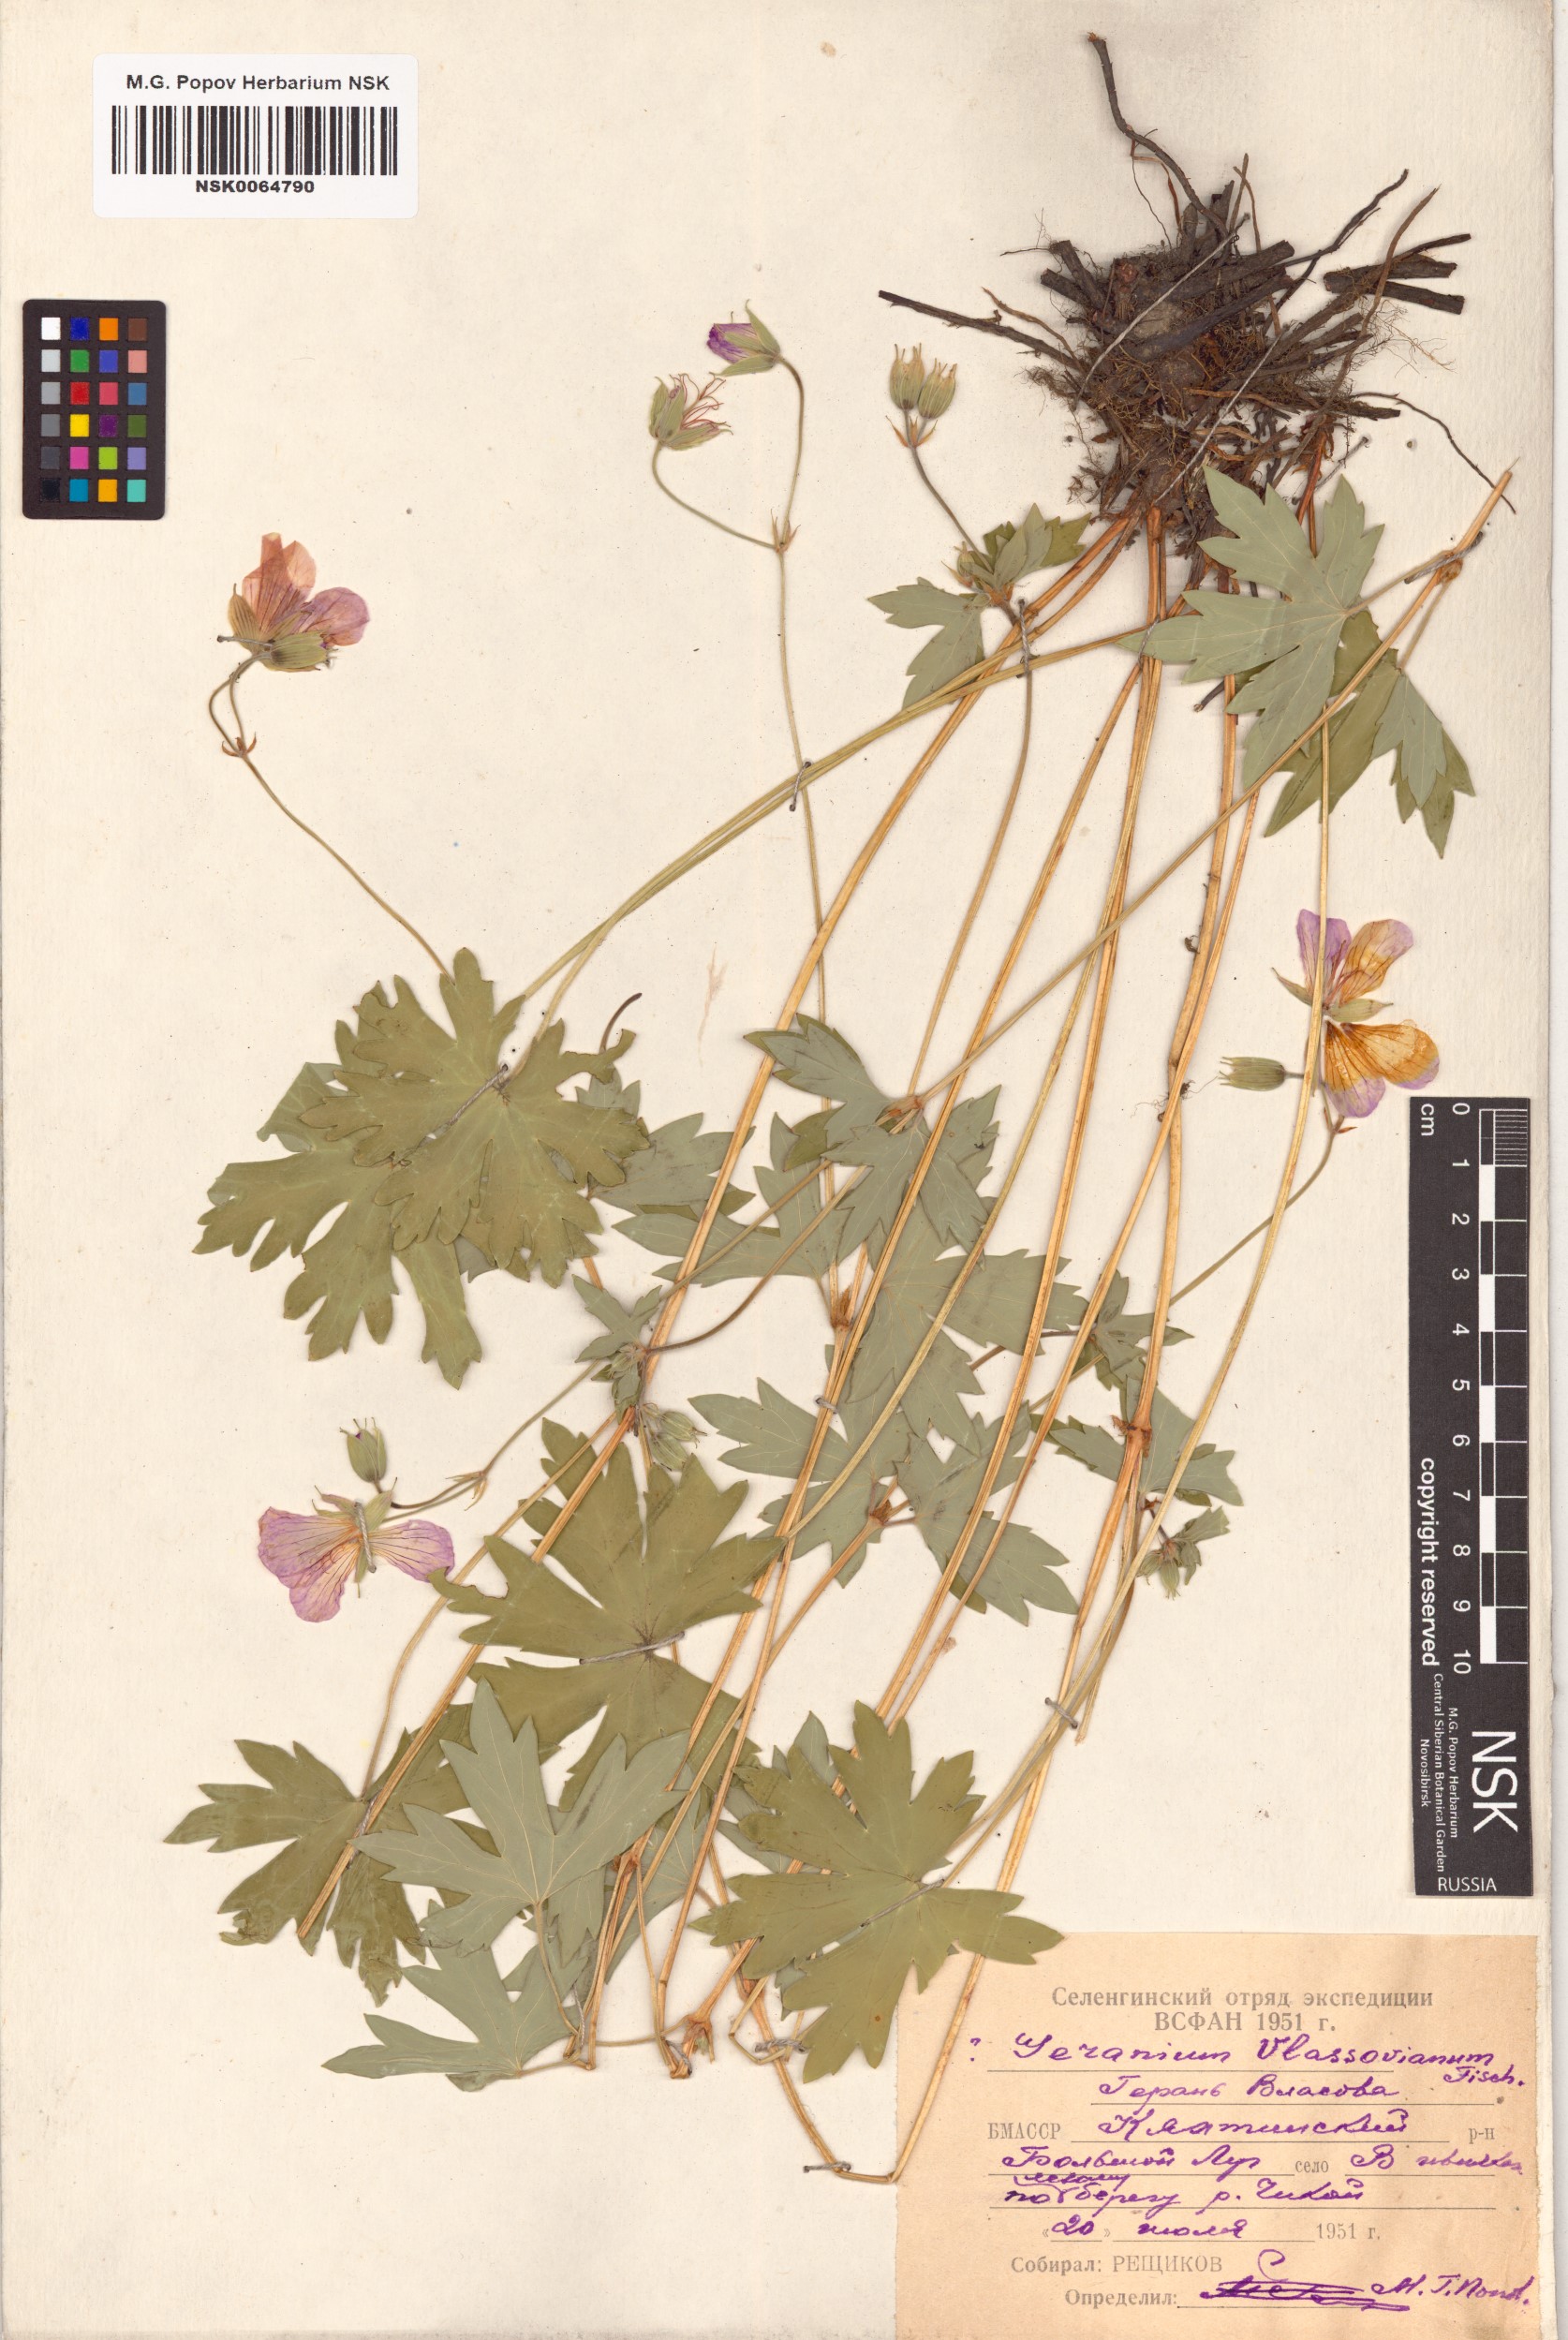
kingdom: Plantae
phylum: Tracheophyta
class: Magnoliopsida
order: Geraniales
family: Geraniaceae
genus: Geranium
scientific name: Geranium wlassovianum
